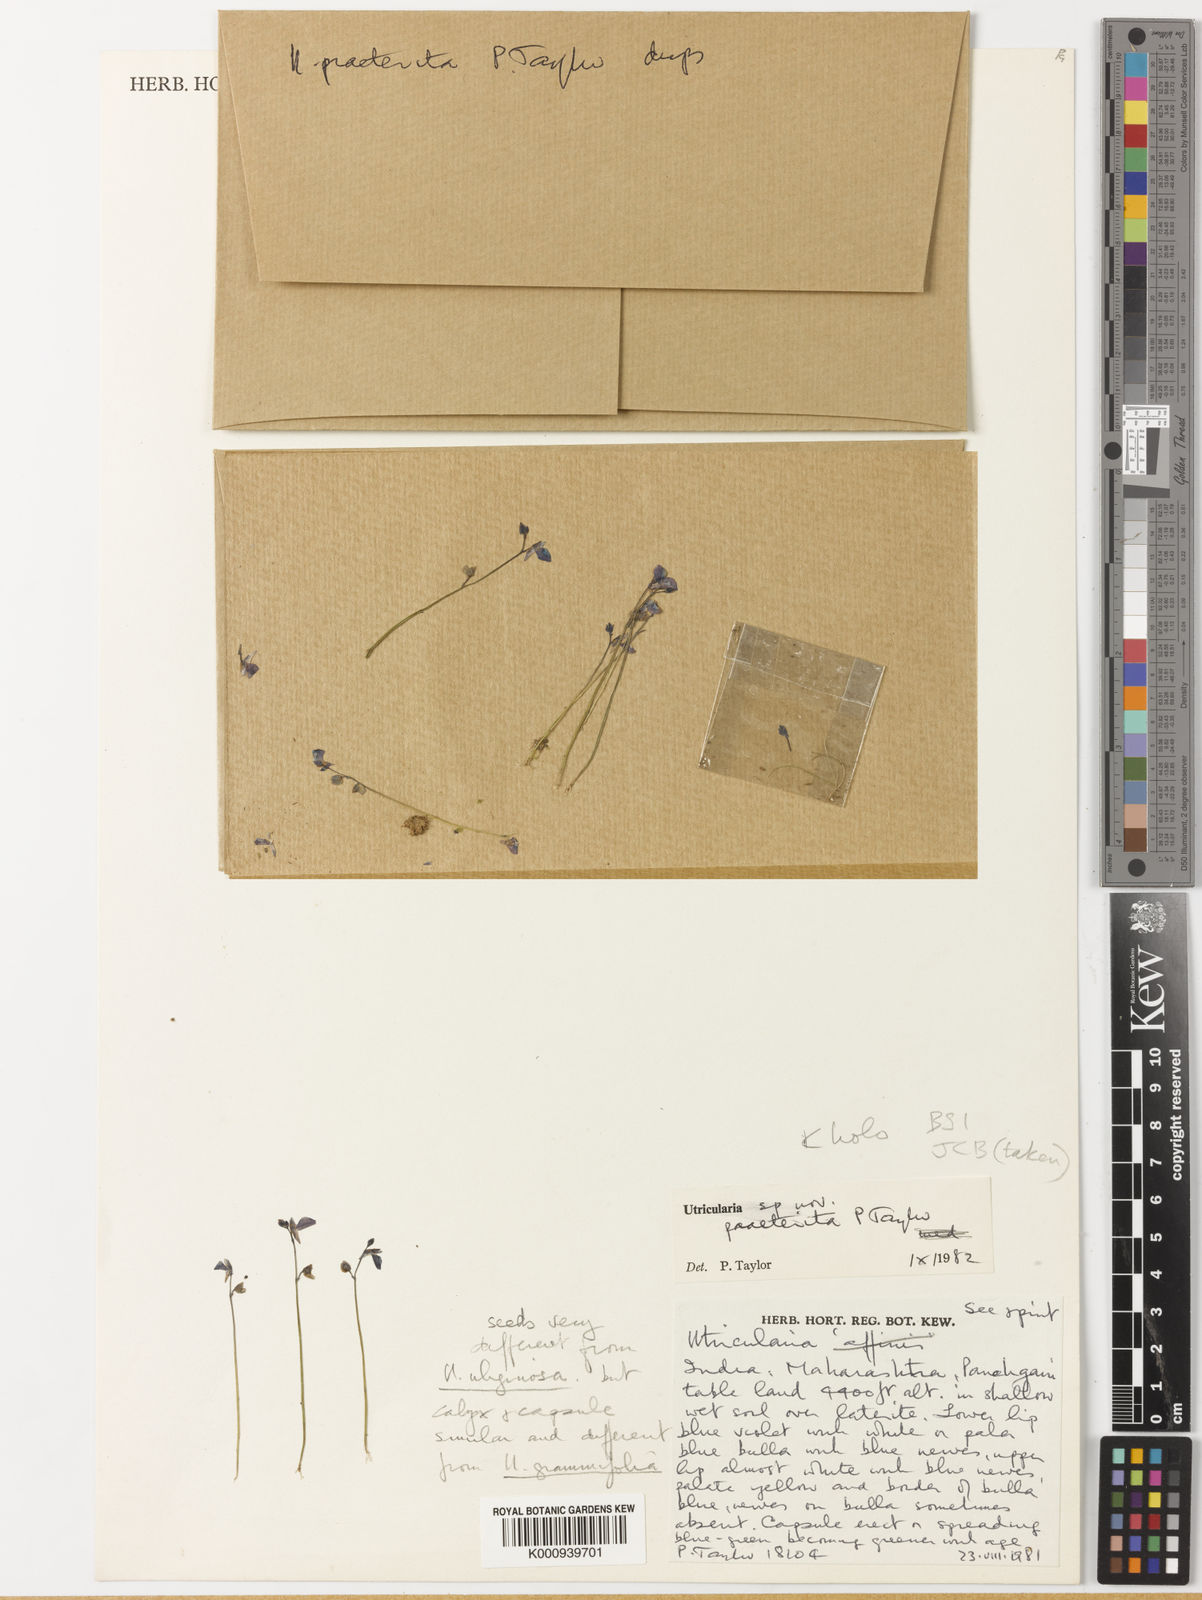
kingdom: Plantae
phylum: Tracheophyta
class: Magnoliopsida
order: Lamiales
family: Lentibulariaceae
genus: Utricularia
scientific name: Utricularia praeterita
